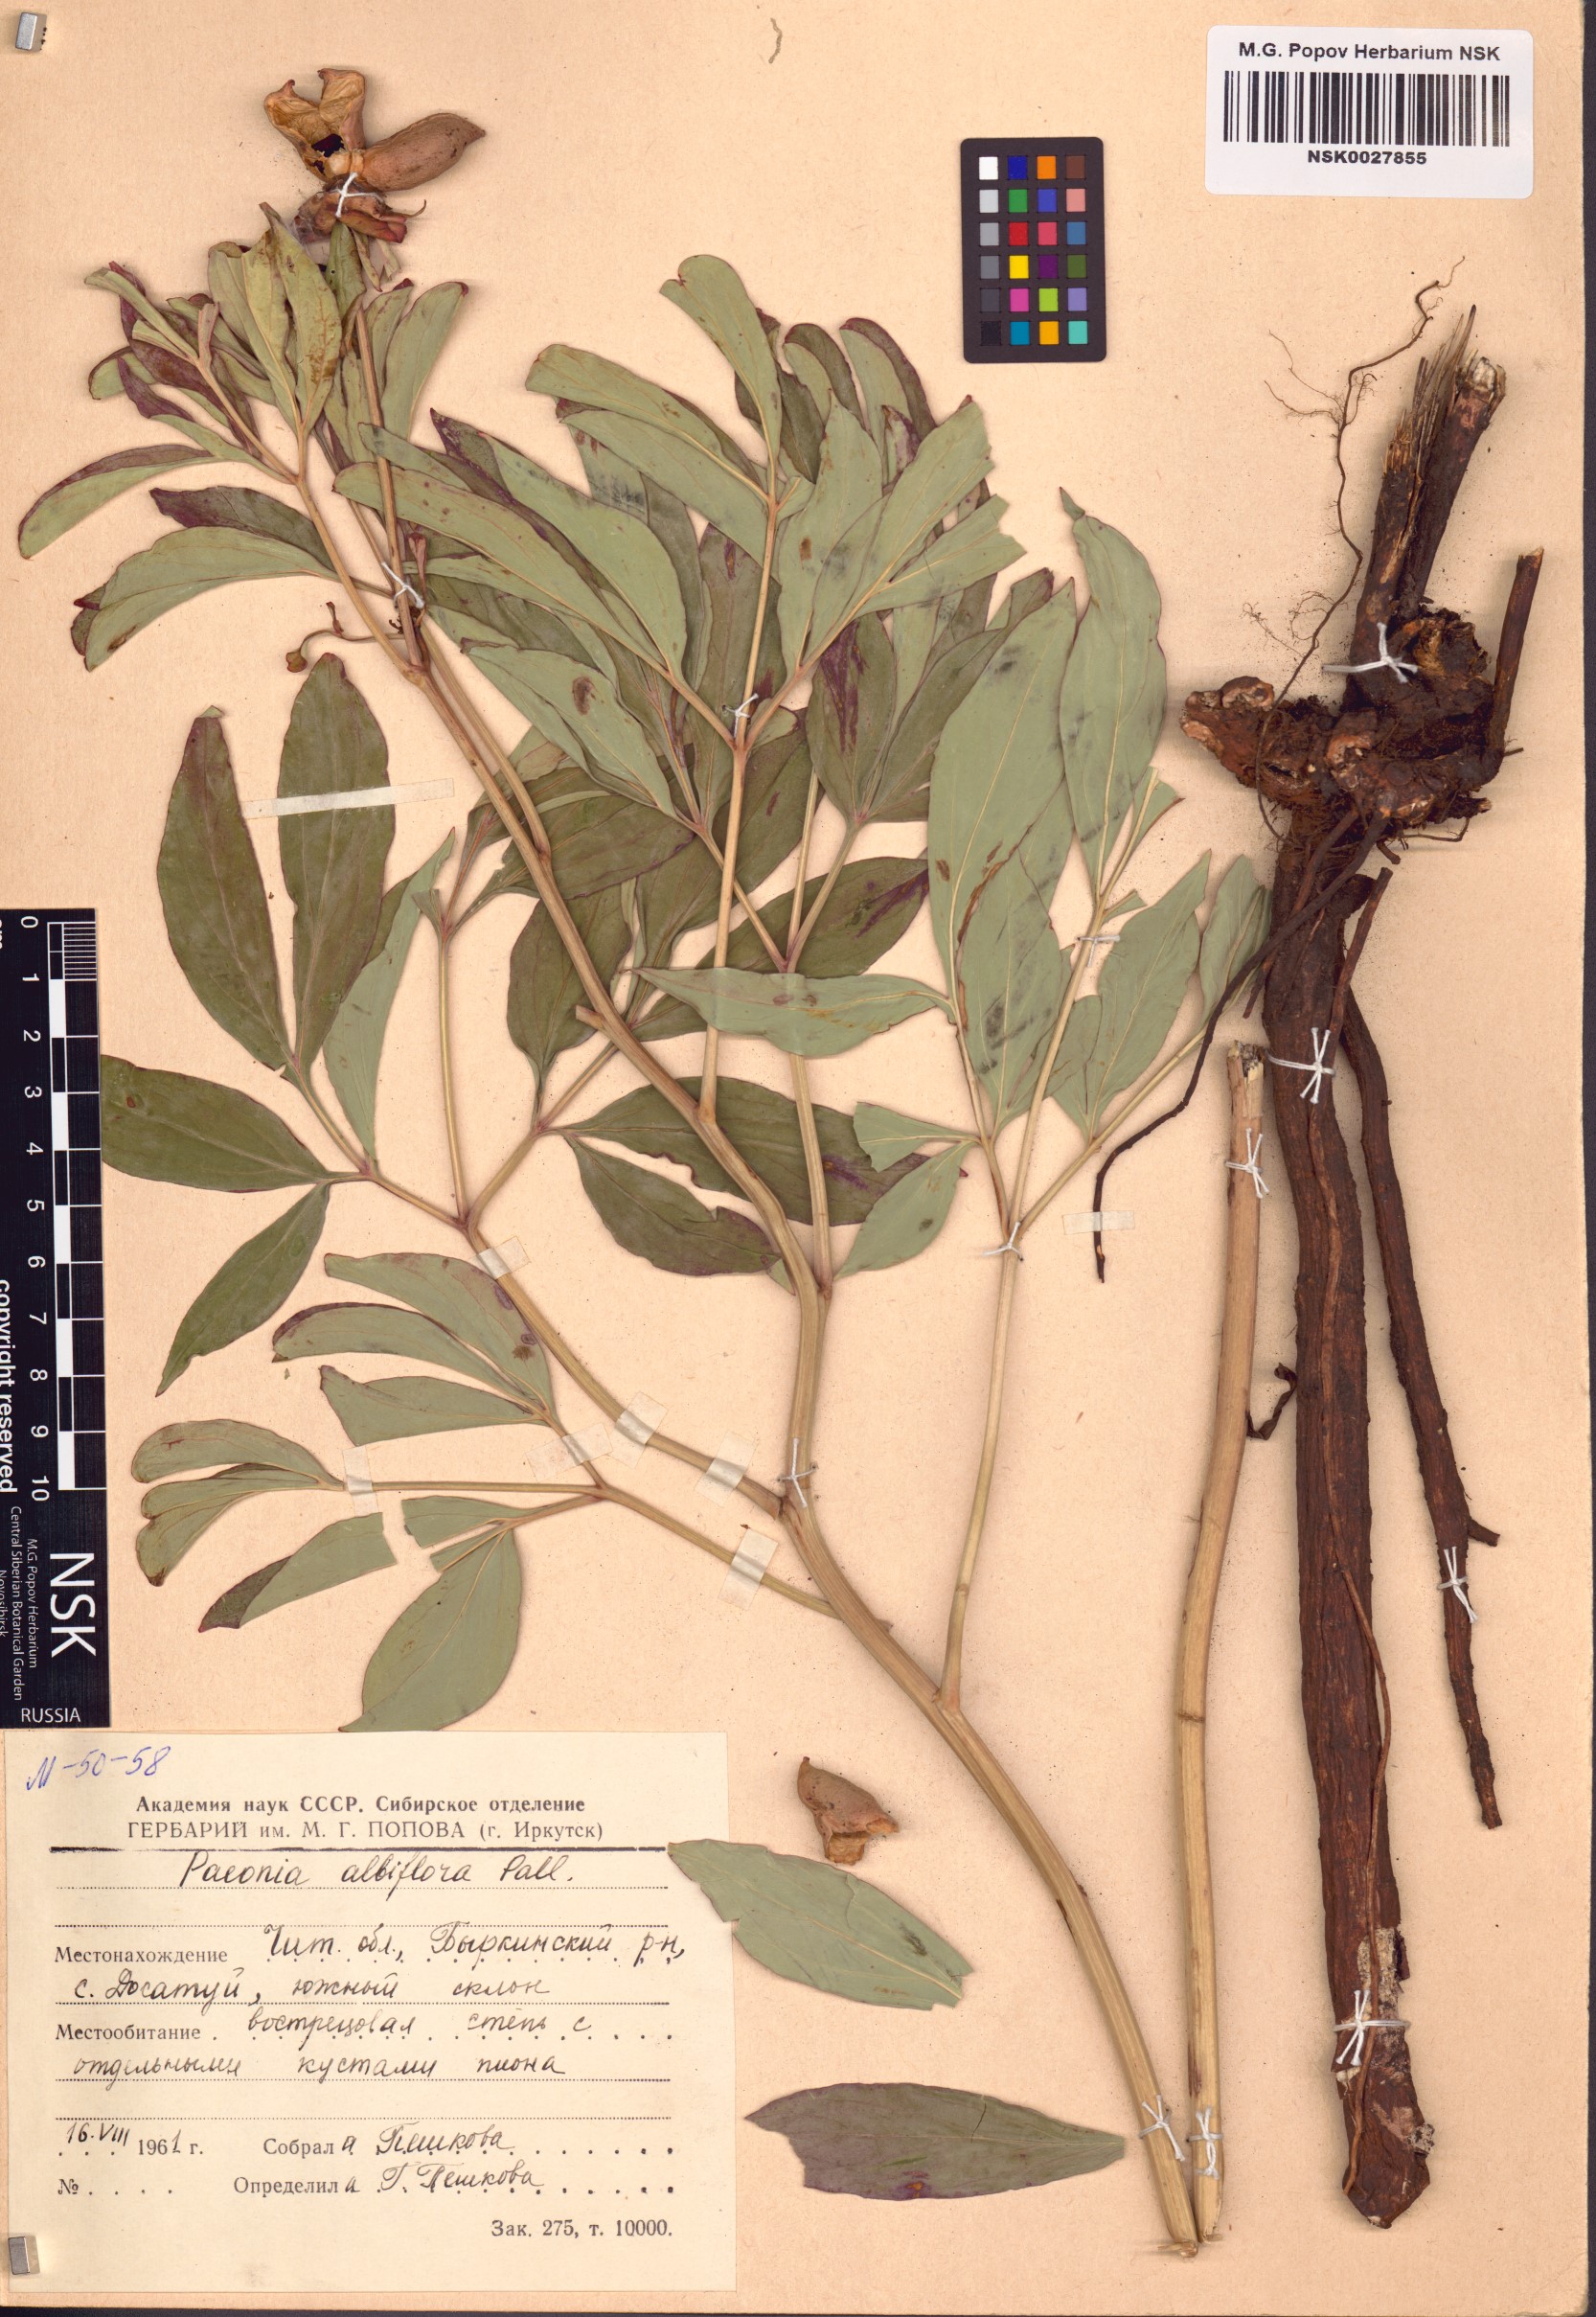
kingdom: Plantae
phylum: Tracheophyta
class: Magnoliopsida
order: Saxifragales
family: Paeoniaceae
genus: Paeonia
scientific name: Paeonia lactiflora
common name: Chinese peony
